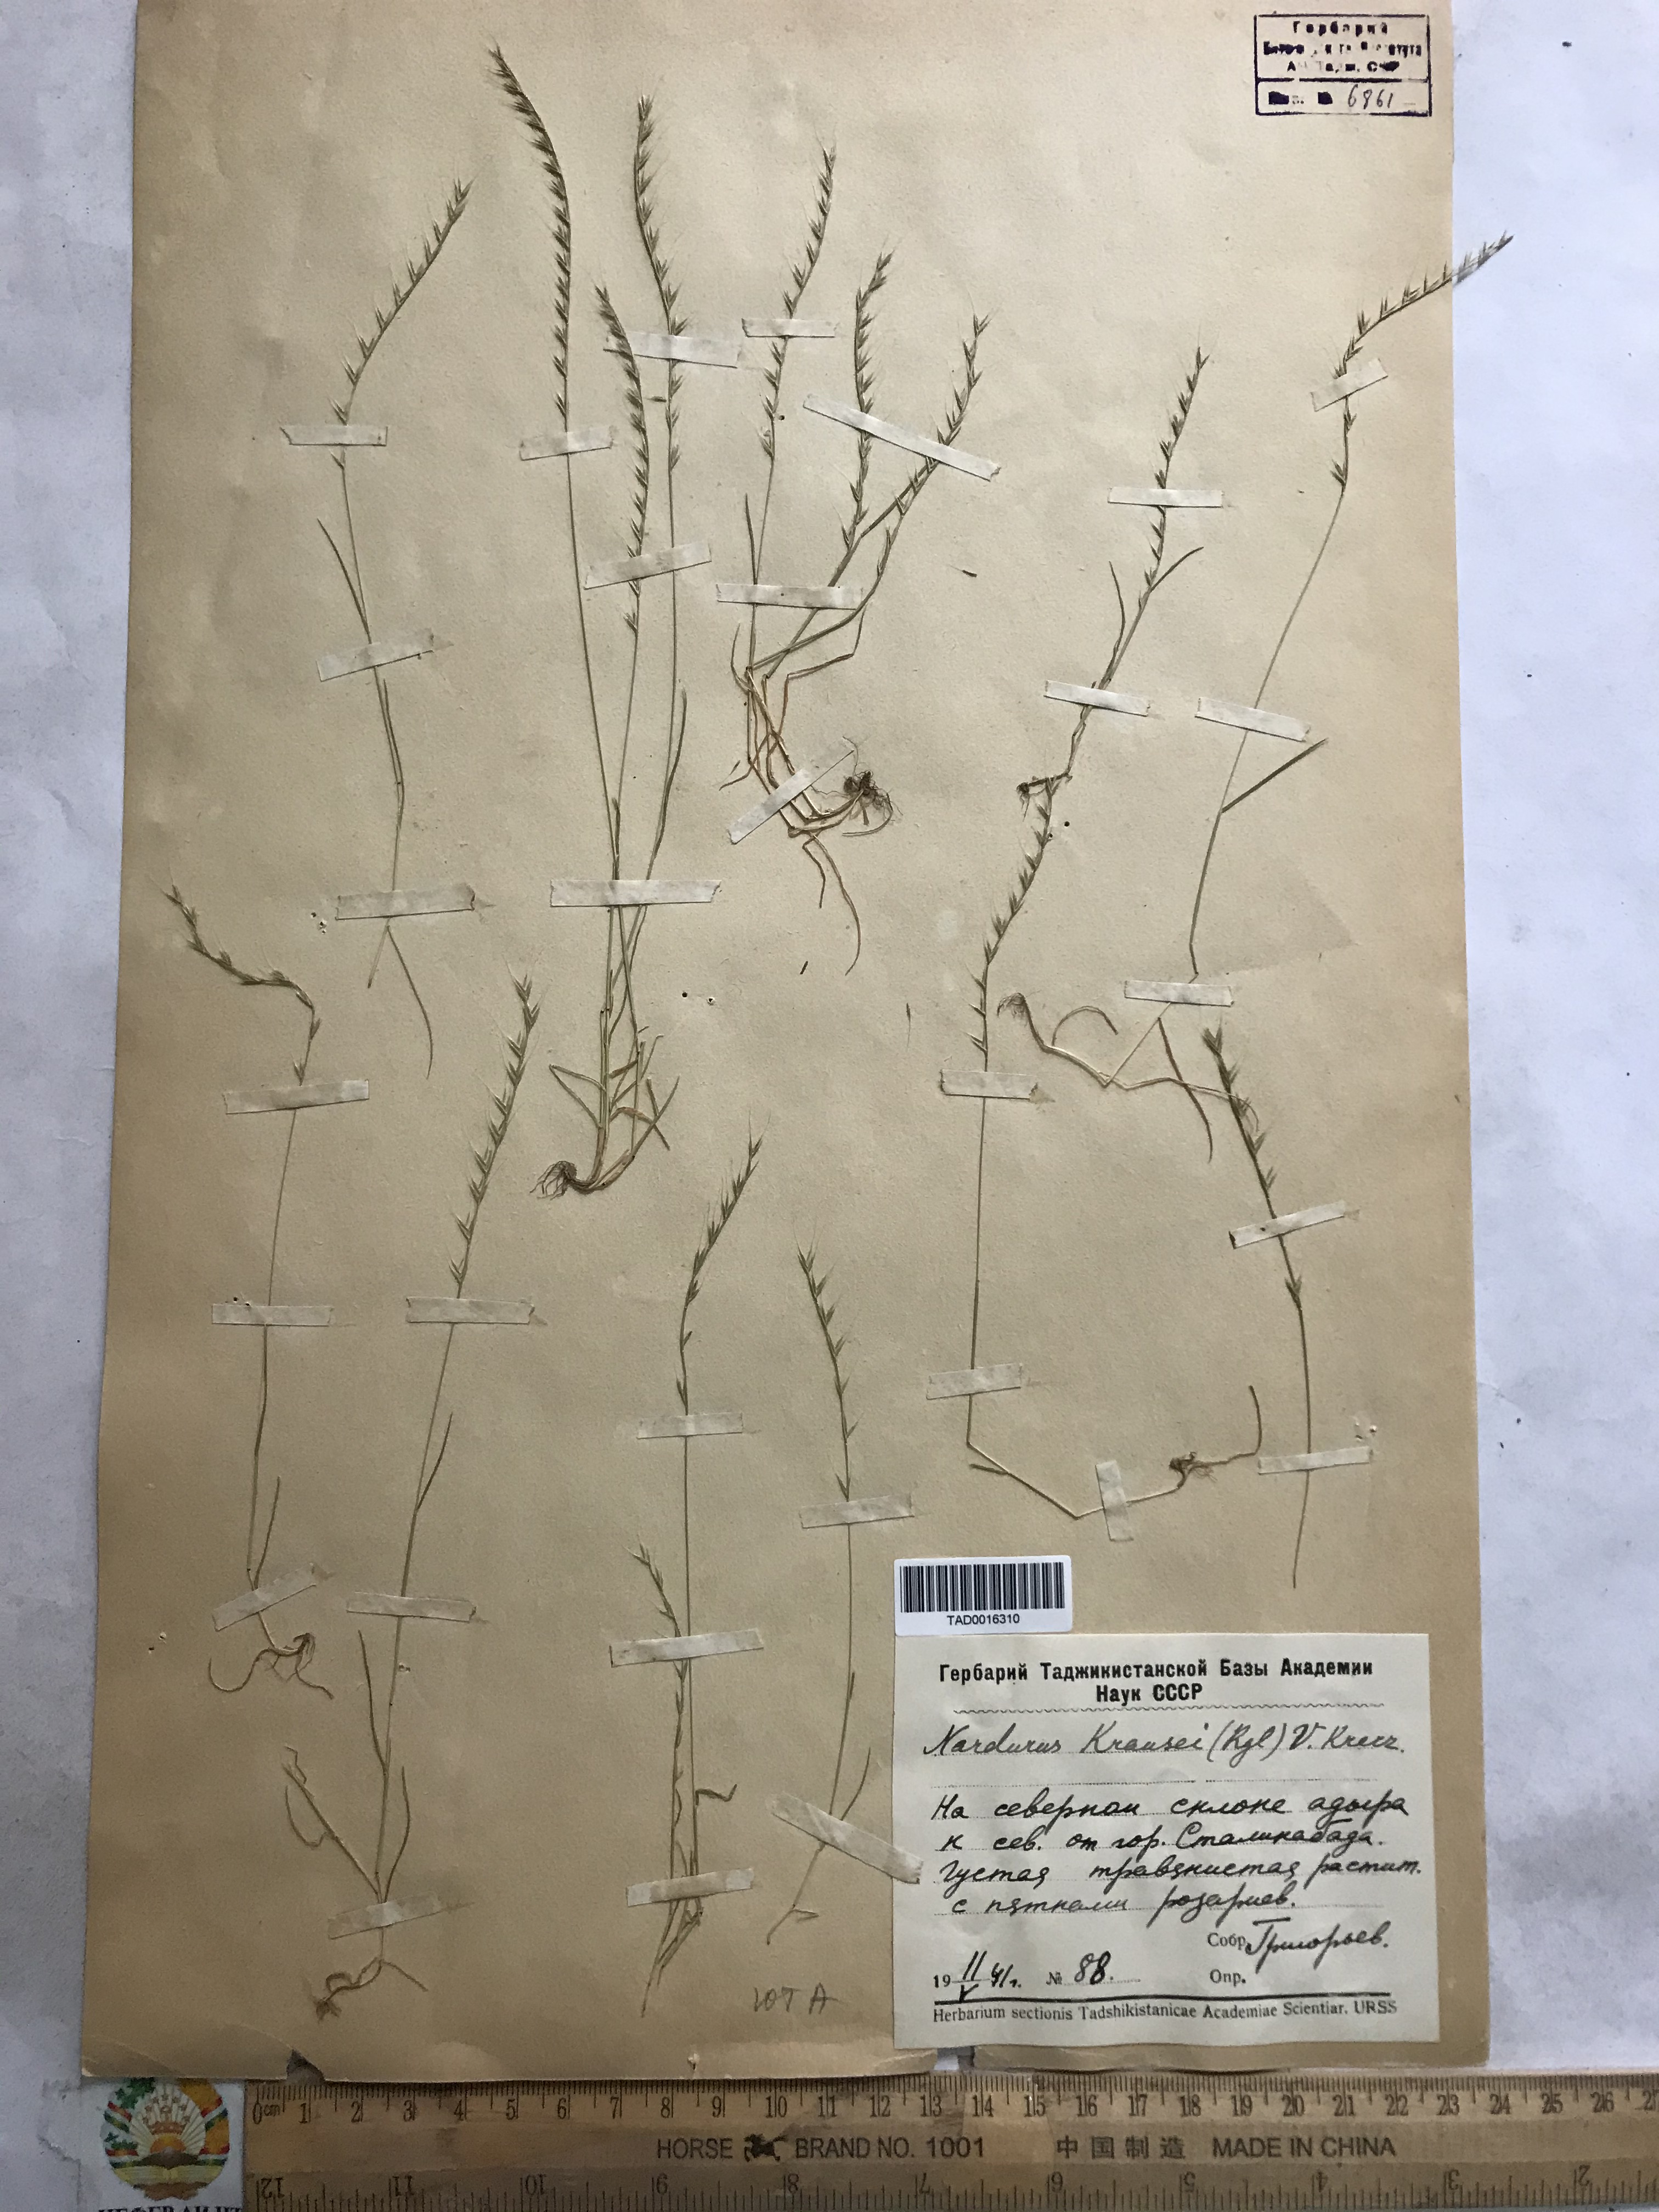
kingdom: Plantae
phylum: Tracheophyta
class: Liliopsida
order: Poales
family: Poaceae
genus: Festuca
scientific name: Festuca maritima
